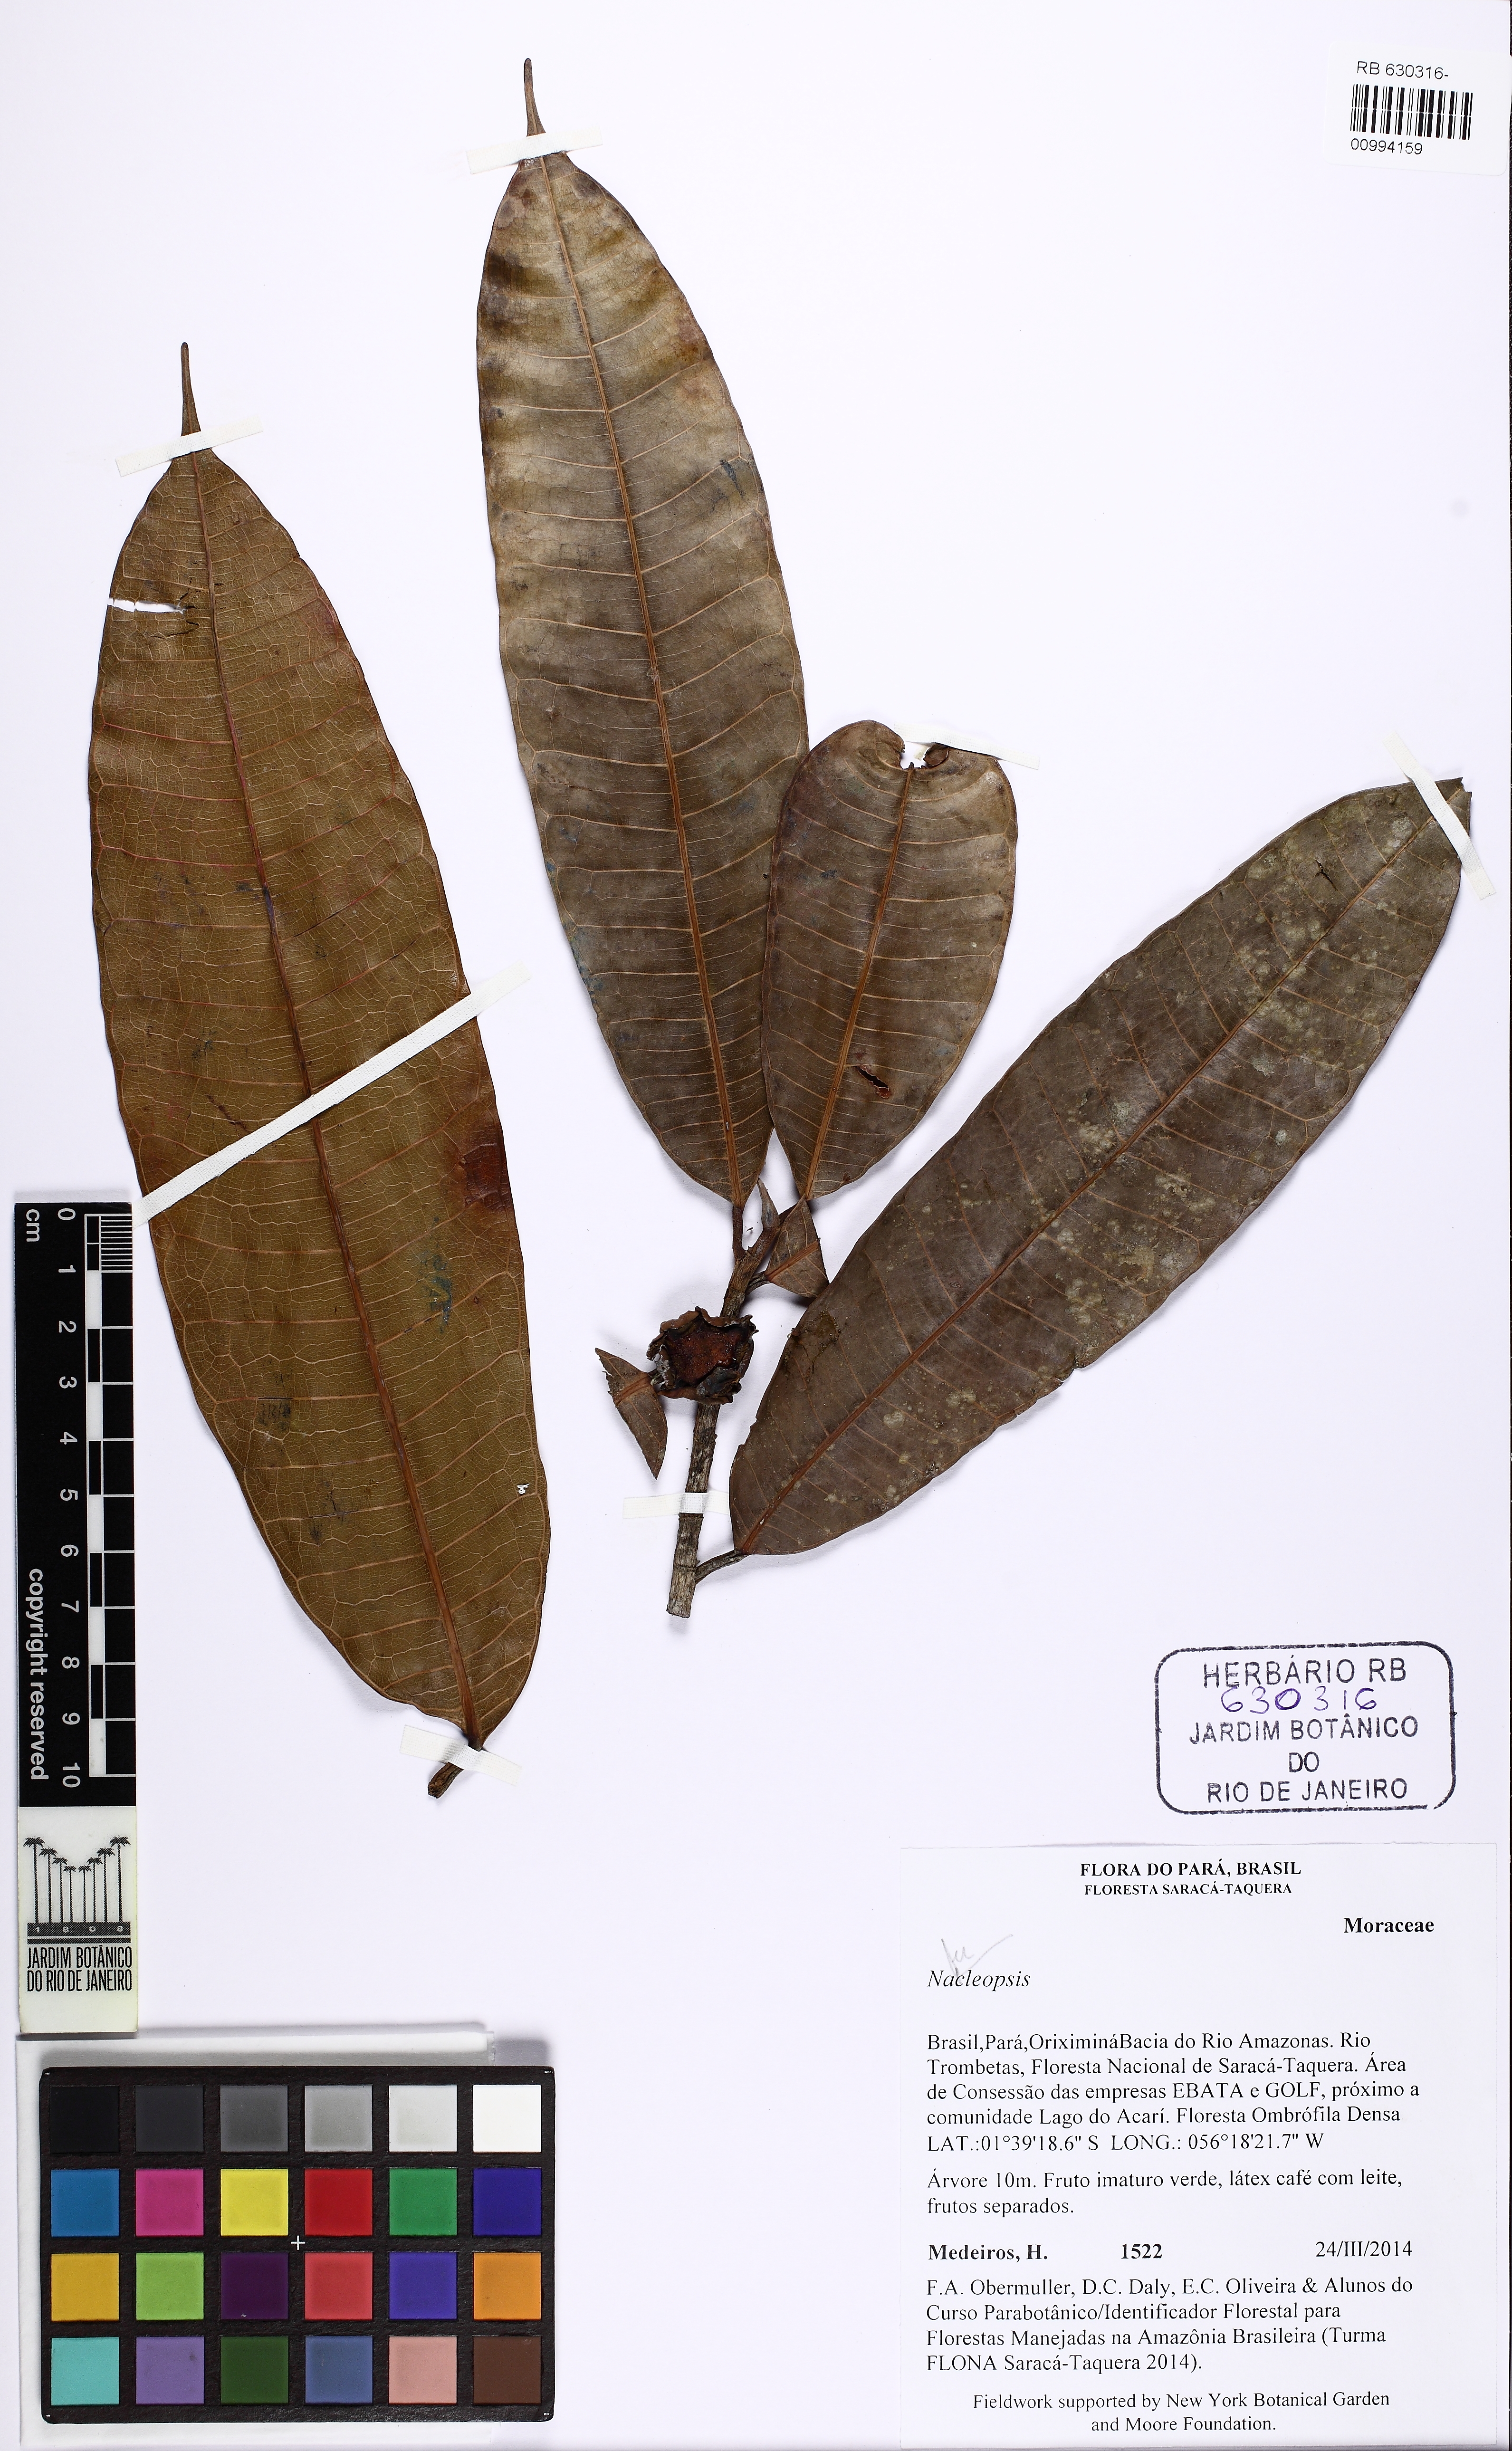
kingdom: Plantae
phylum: Tracheophyta
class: Magnoliopsida
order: Rosales
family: Moraceae
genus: Naucleopsis
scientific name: Naucleopsis
